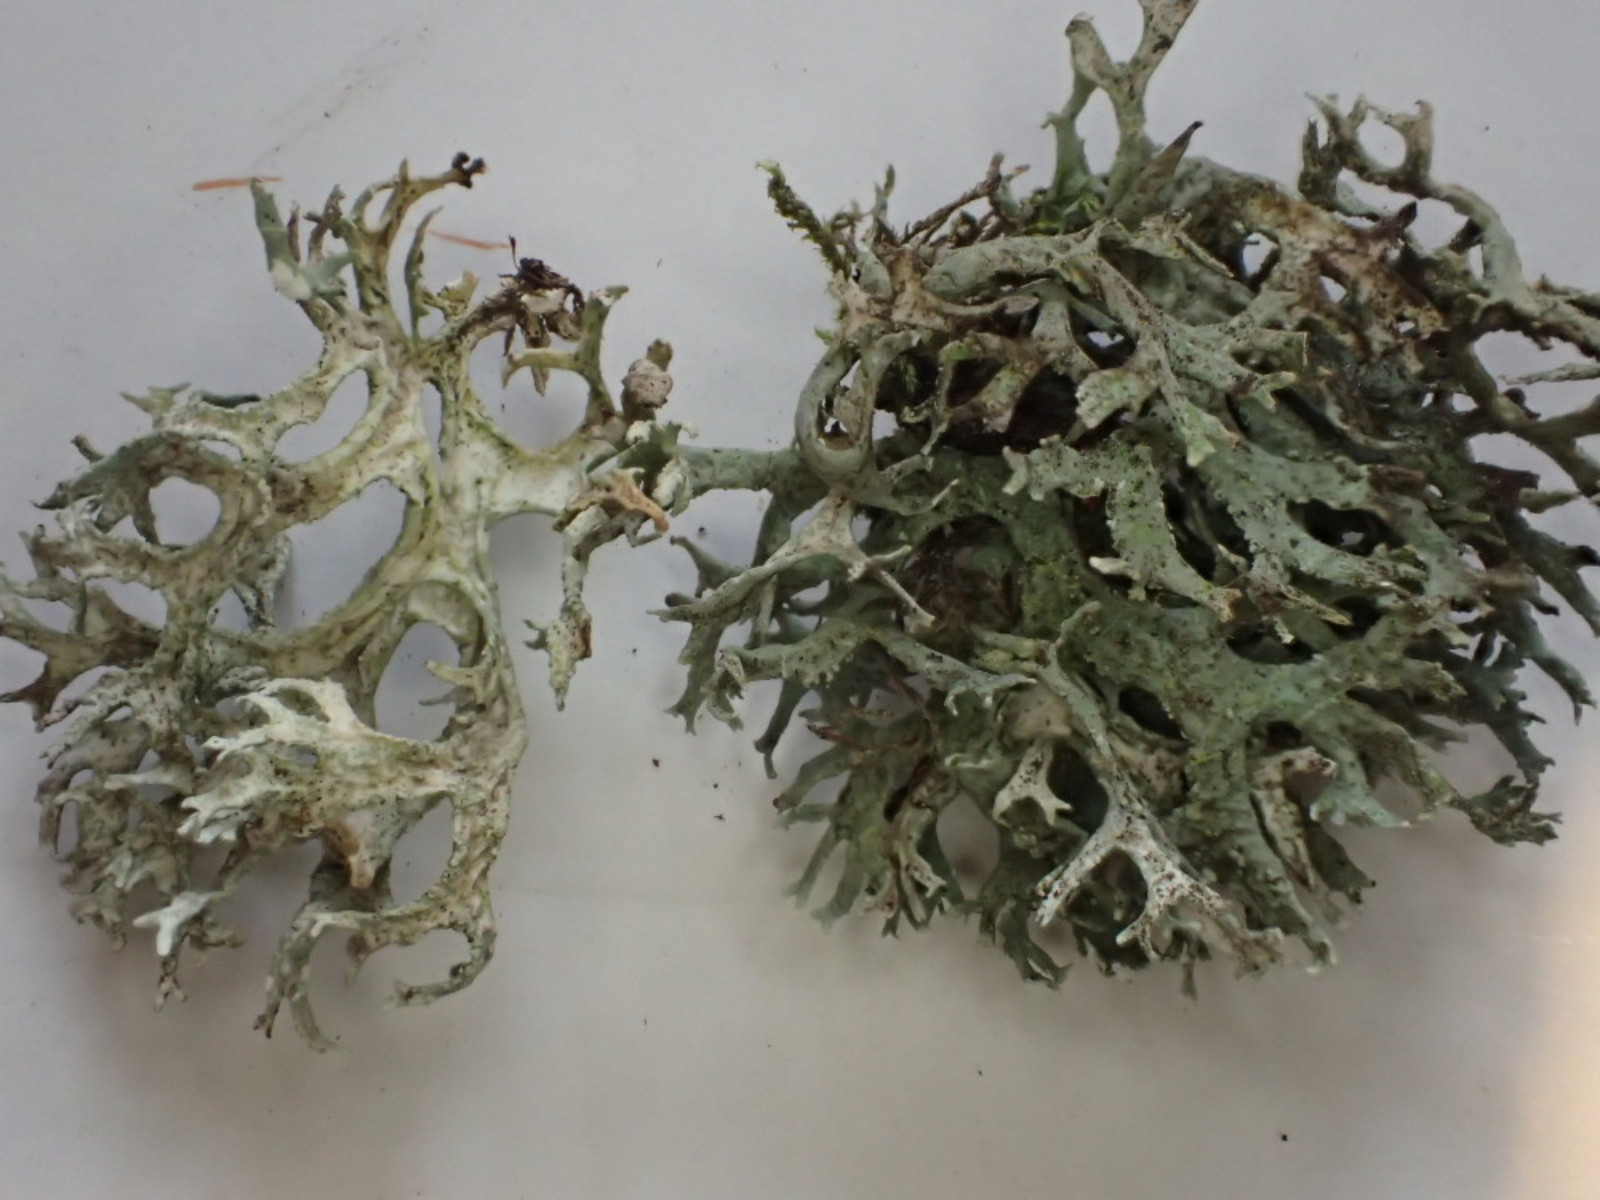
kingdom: Fungi
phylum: Ascomycota
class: Lecanoromycetes
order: Lecanorales
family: Parmeliaceae
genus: Evernia
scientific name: Evernia prunastri
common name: almindelig slåenlav
